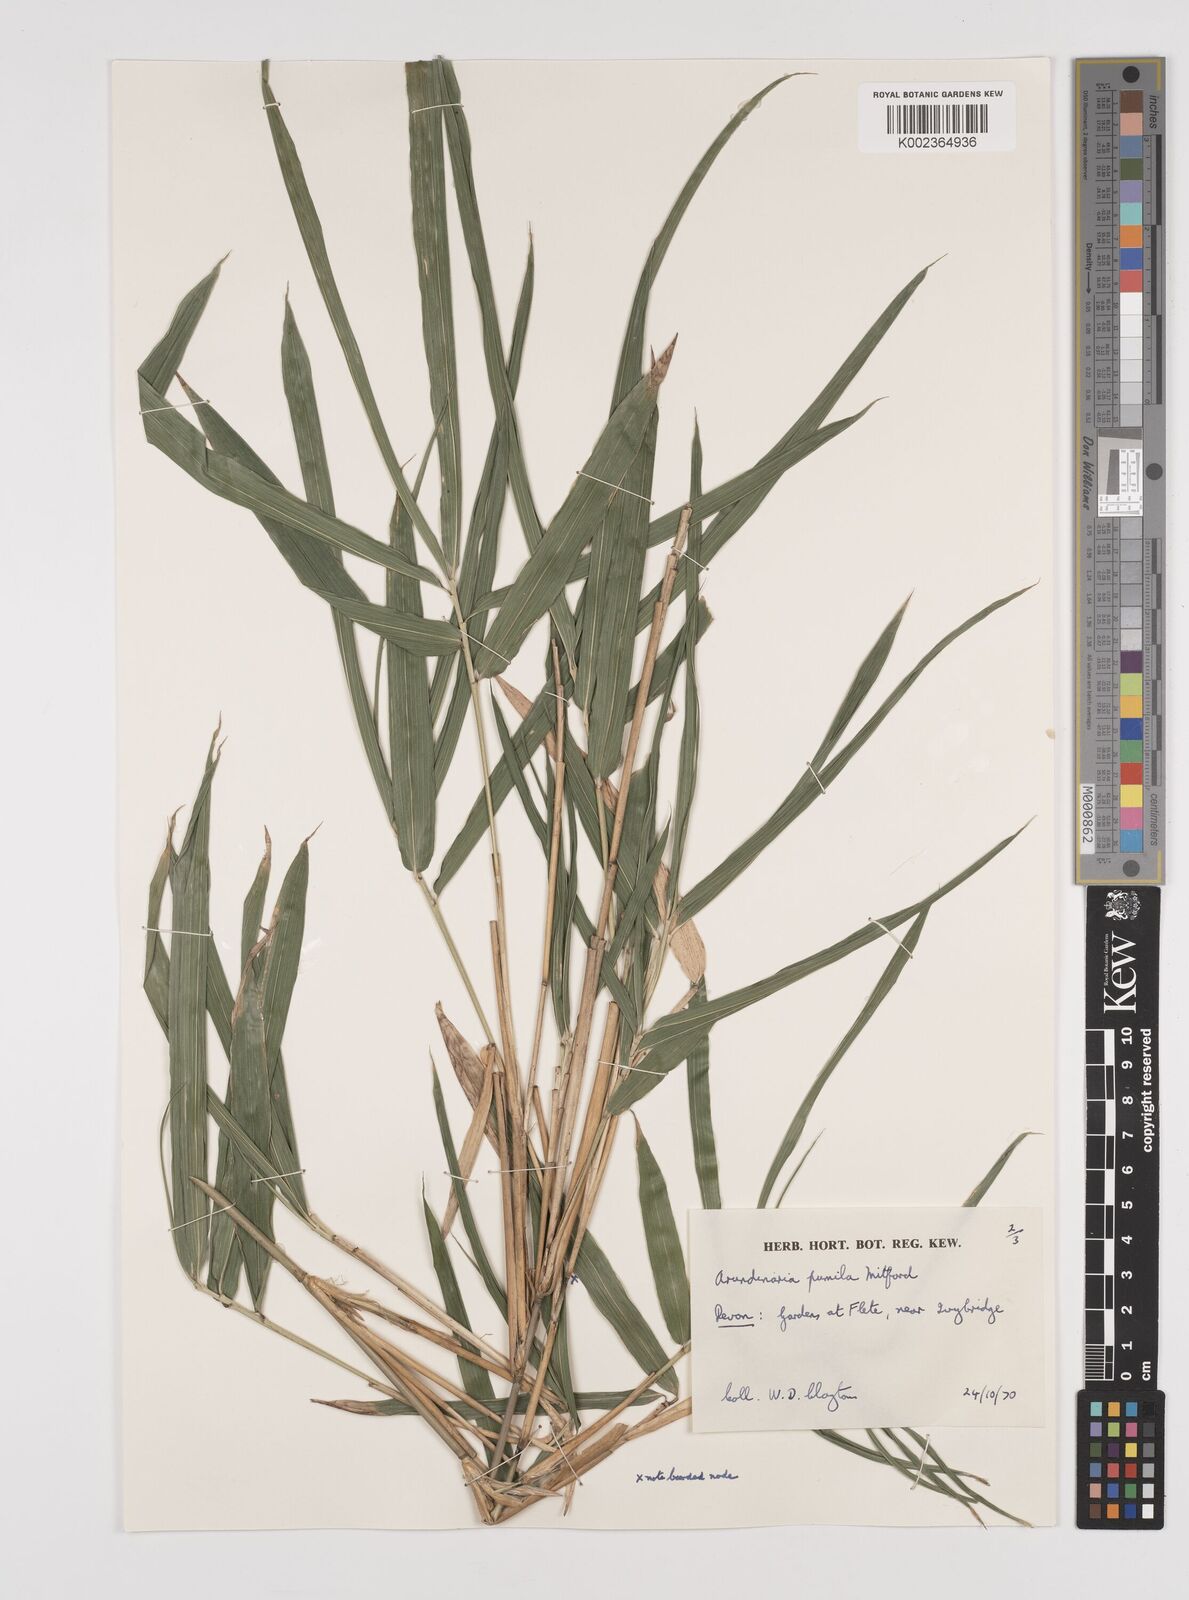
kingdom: Plantae
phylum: Tracheophyta
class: Liliopsida
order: Poales
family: Poaceae
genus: Pleioblastus
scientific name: Pleioblastus argenteostriatus
